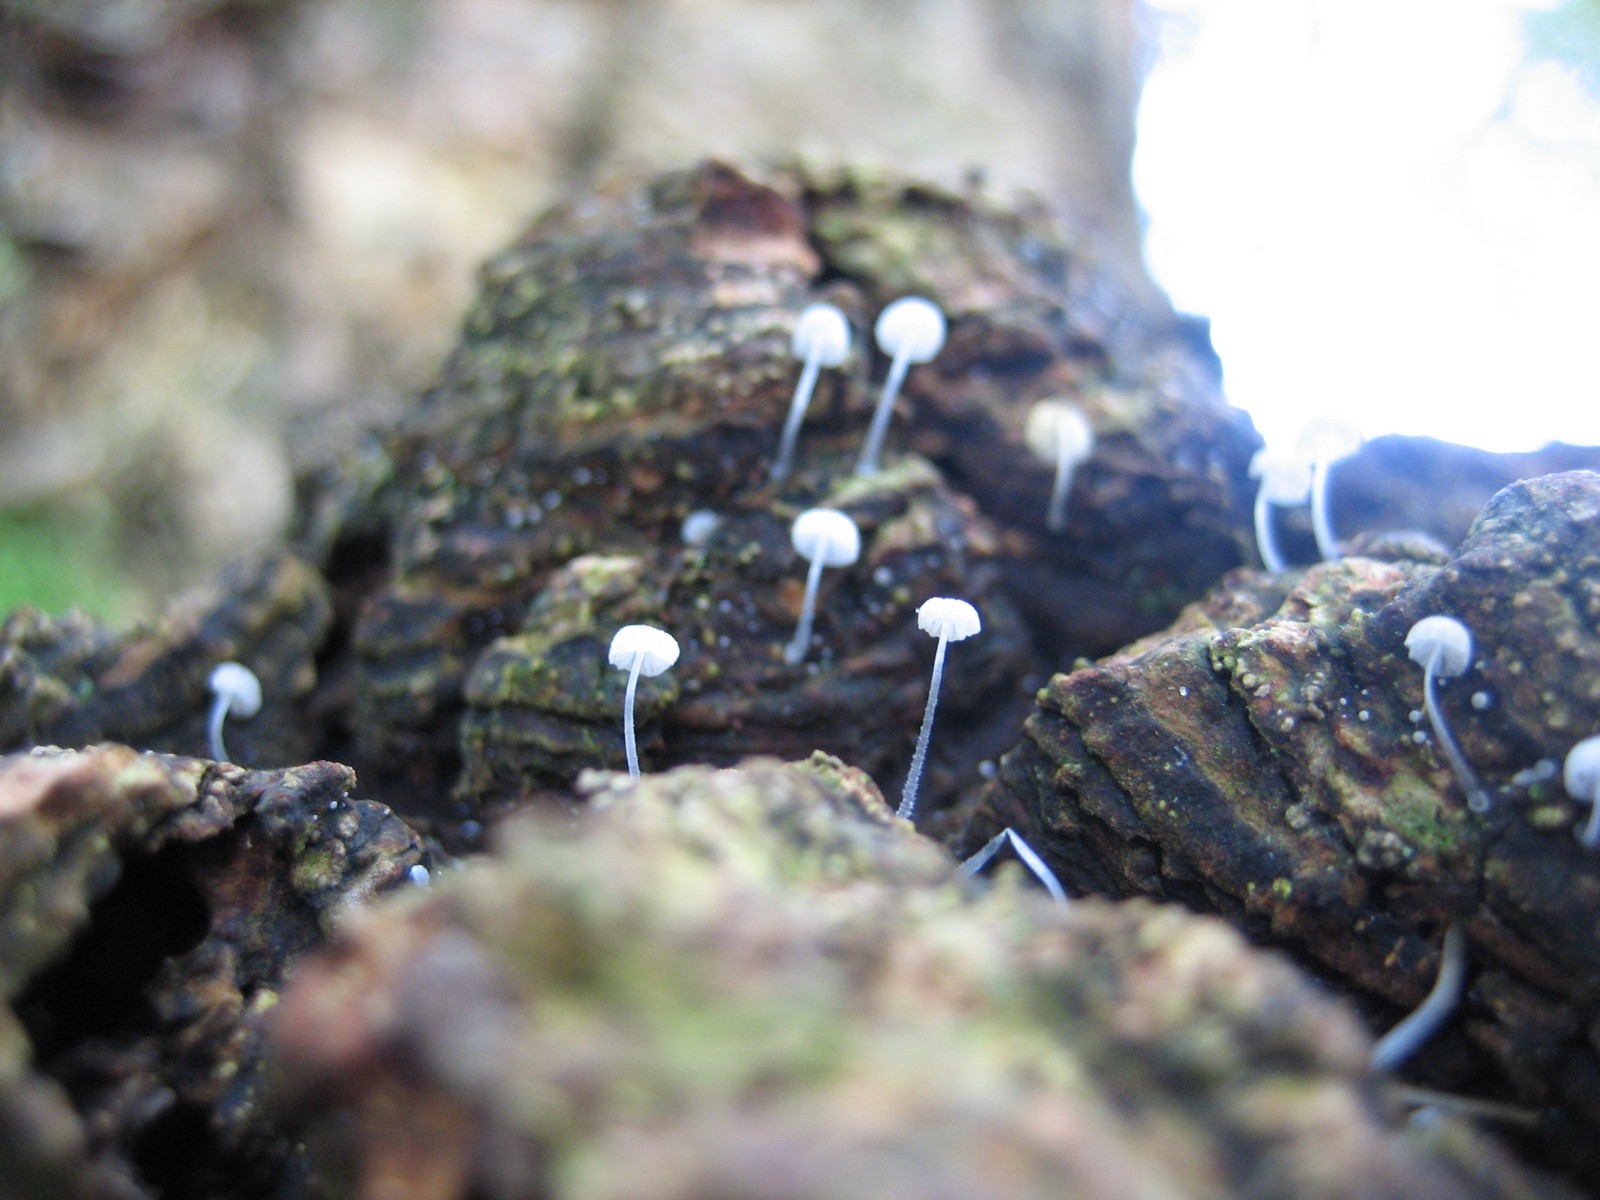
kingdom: Fungi
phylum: Basidiomycota
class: Agaricomycetes
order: Agaricales
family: Mycenaceae
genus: Mycena
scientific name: Mycena tenerrima
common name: pudret huesvamp
